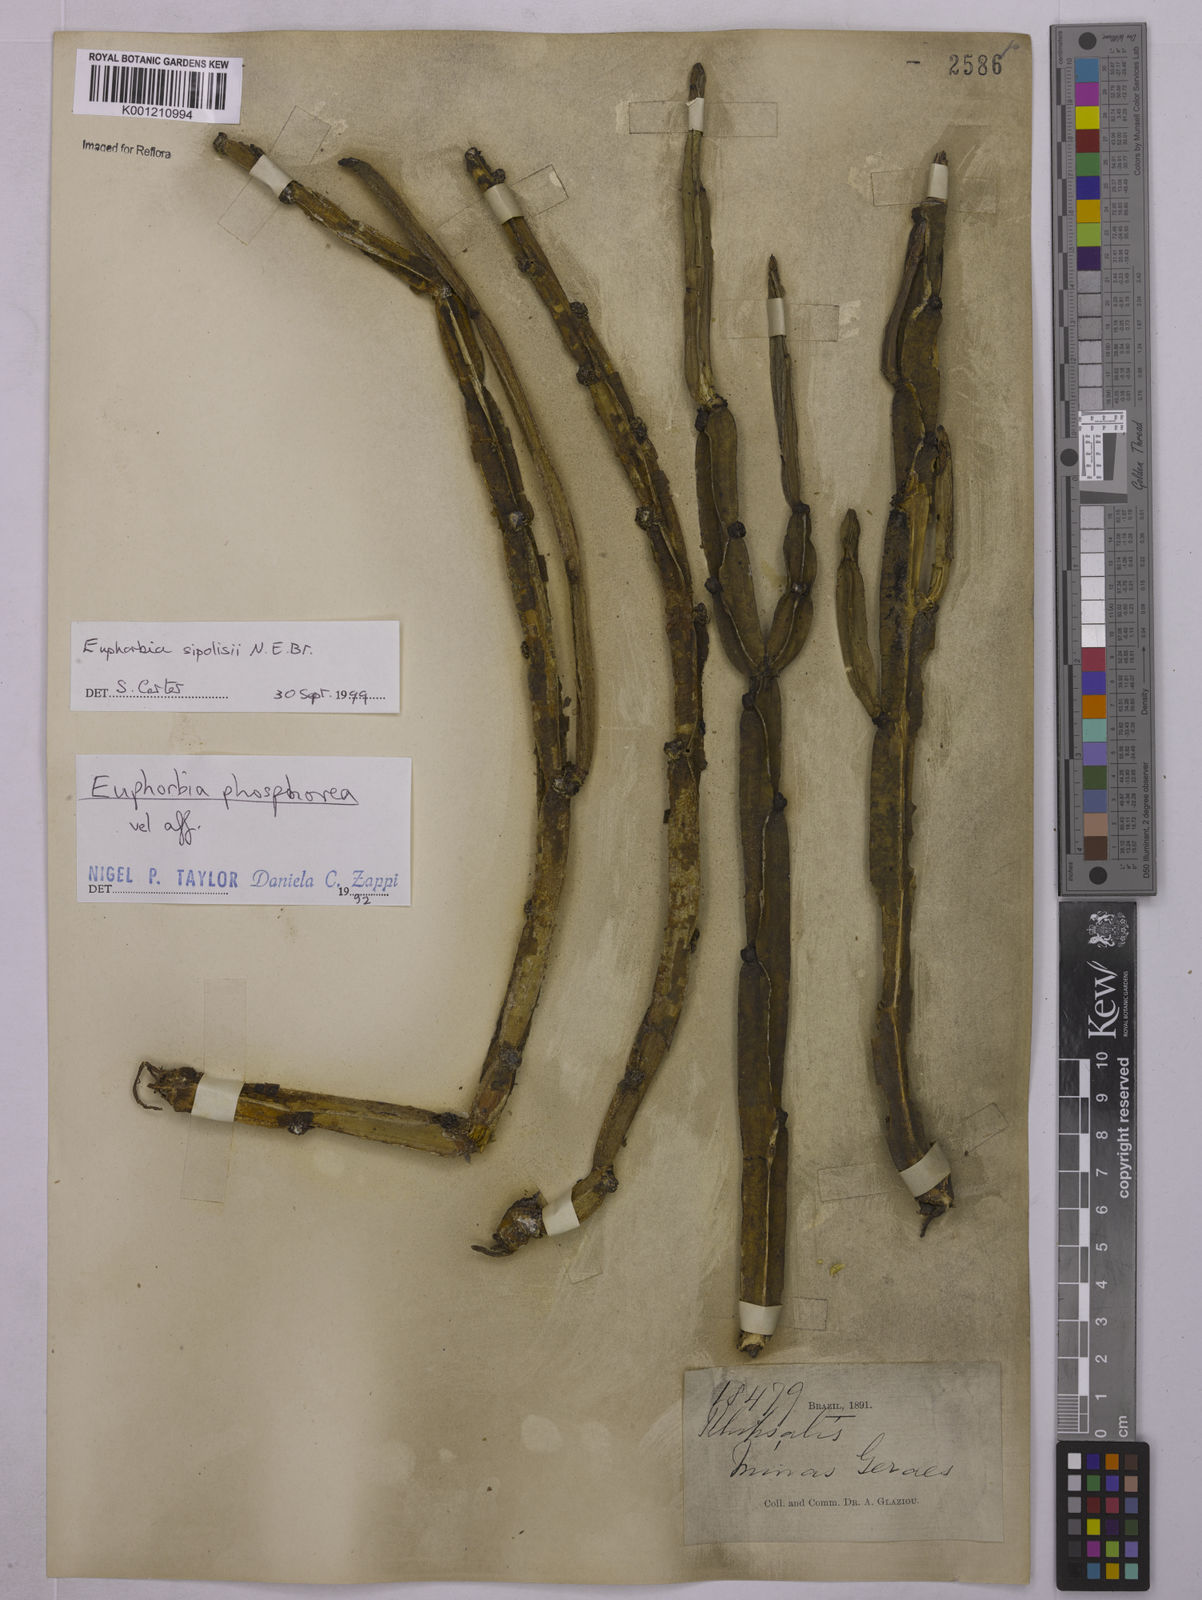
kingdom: Plantae
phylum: Tracheophyta
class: Magnoliopsida
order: Malpighiales
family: Euphorbiaceae
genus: Euphorbia
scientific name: Euphorbia sipolisii
